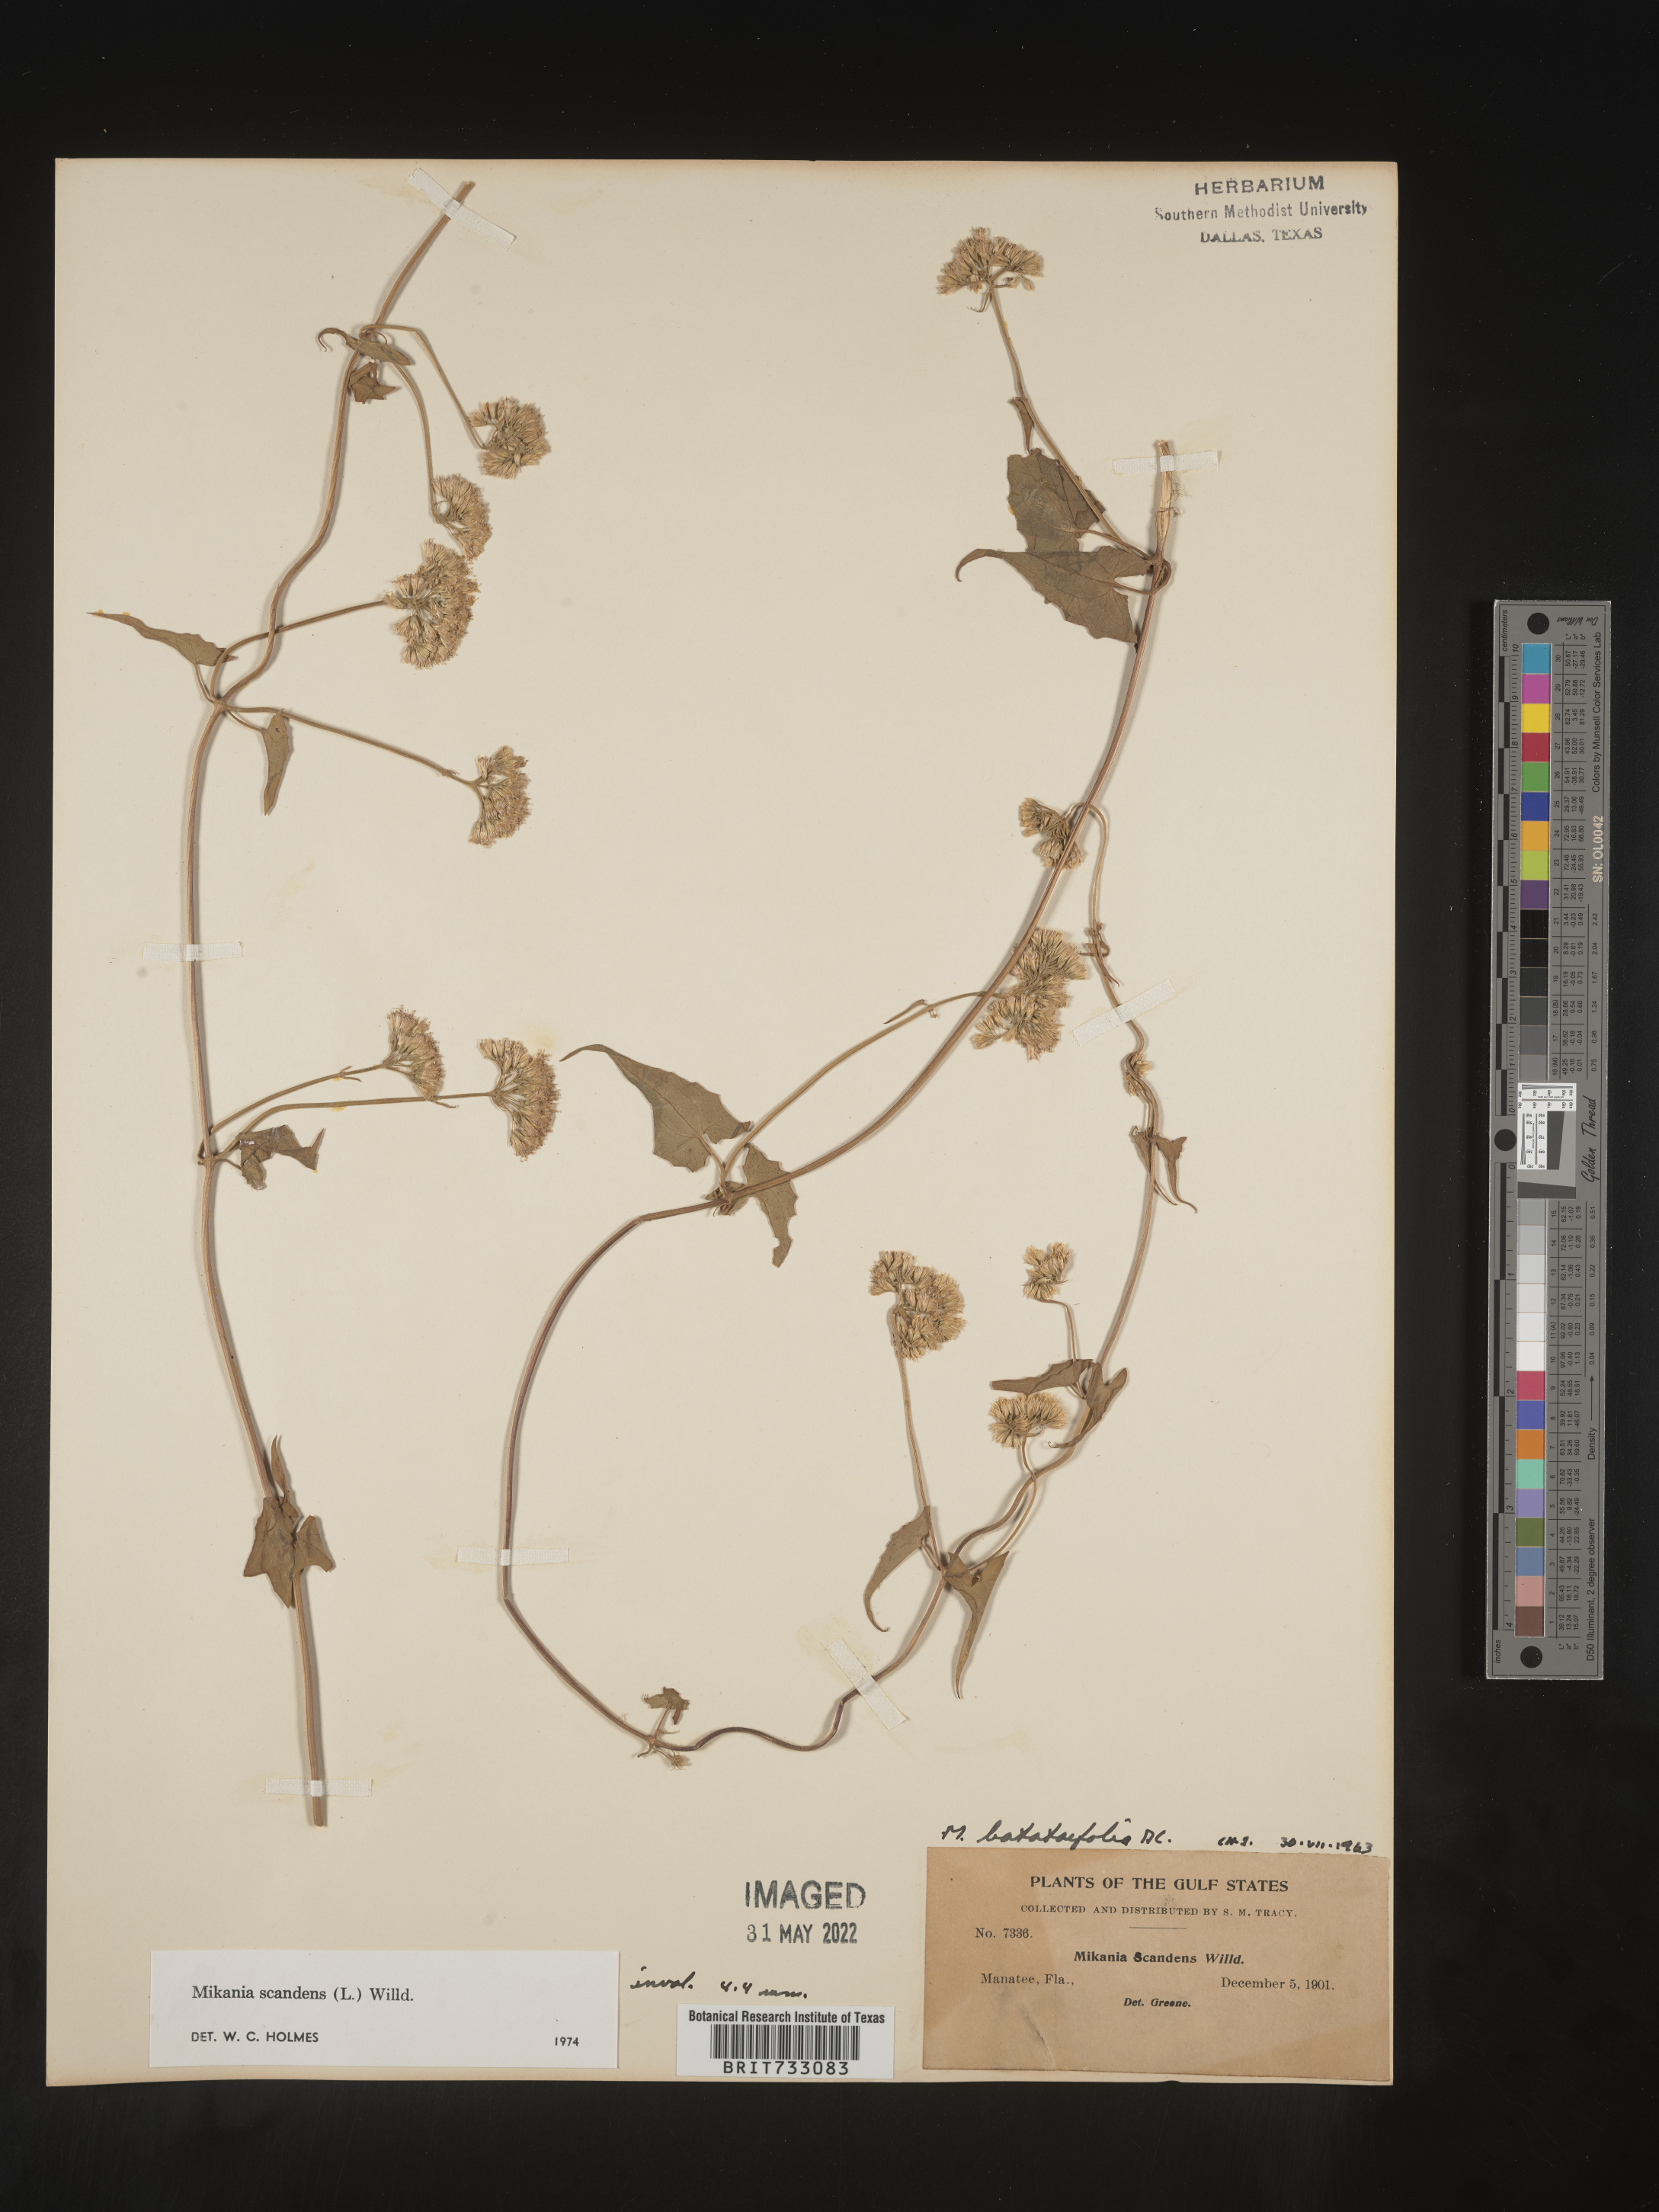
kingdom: Plantae
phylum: Tracheophyta
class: Magnoliopsida
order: Asterales
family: Asteraceae
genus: Mikania
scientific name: Mikania scandens
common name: Climbing hempvine
